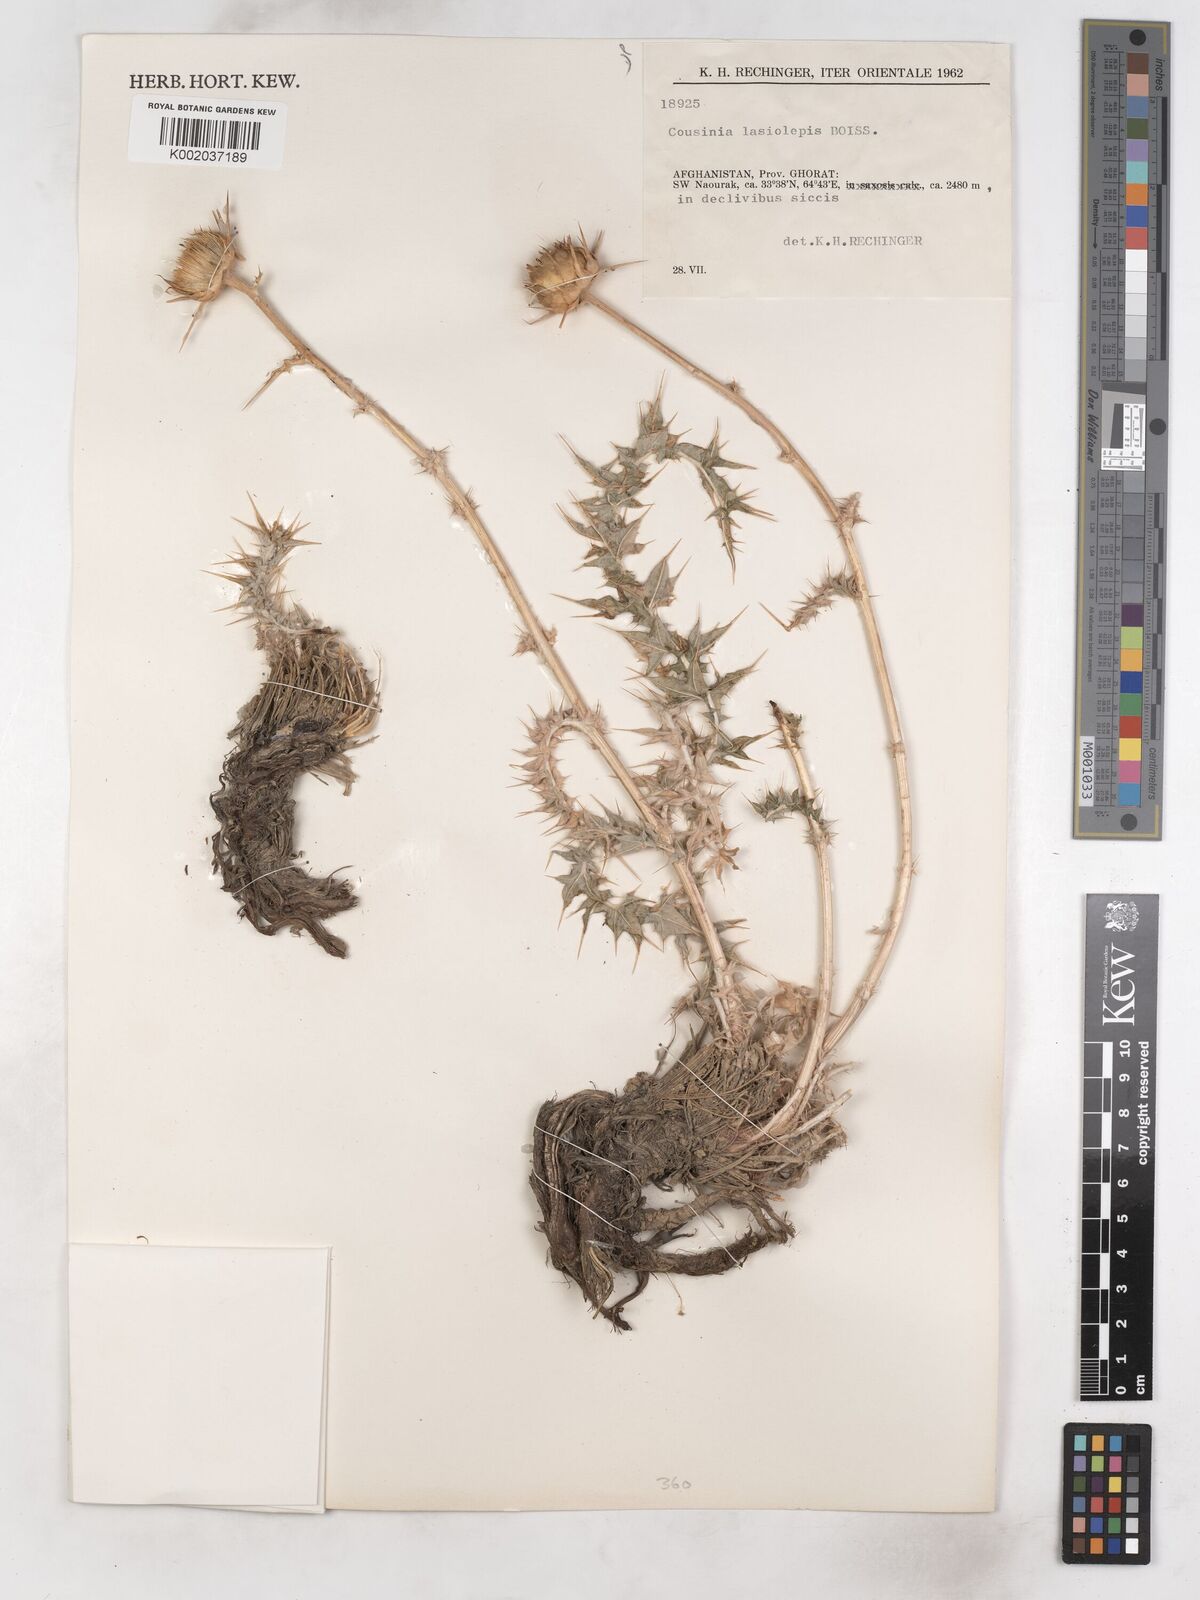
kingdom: Plantae
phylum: Tracheophyta
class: Magnoliopsida
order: Asterales
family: Asteraceae
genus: Cousinia
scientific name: Cousinia lasiolepis
